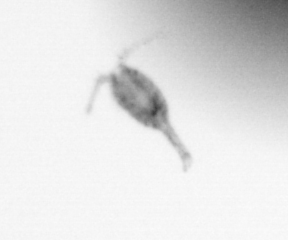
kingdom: Animalia
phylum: Arthropoda
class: Copepoda
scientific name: Copepoda
